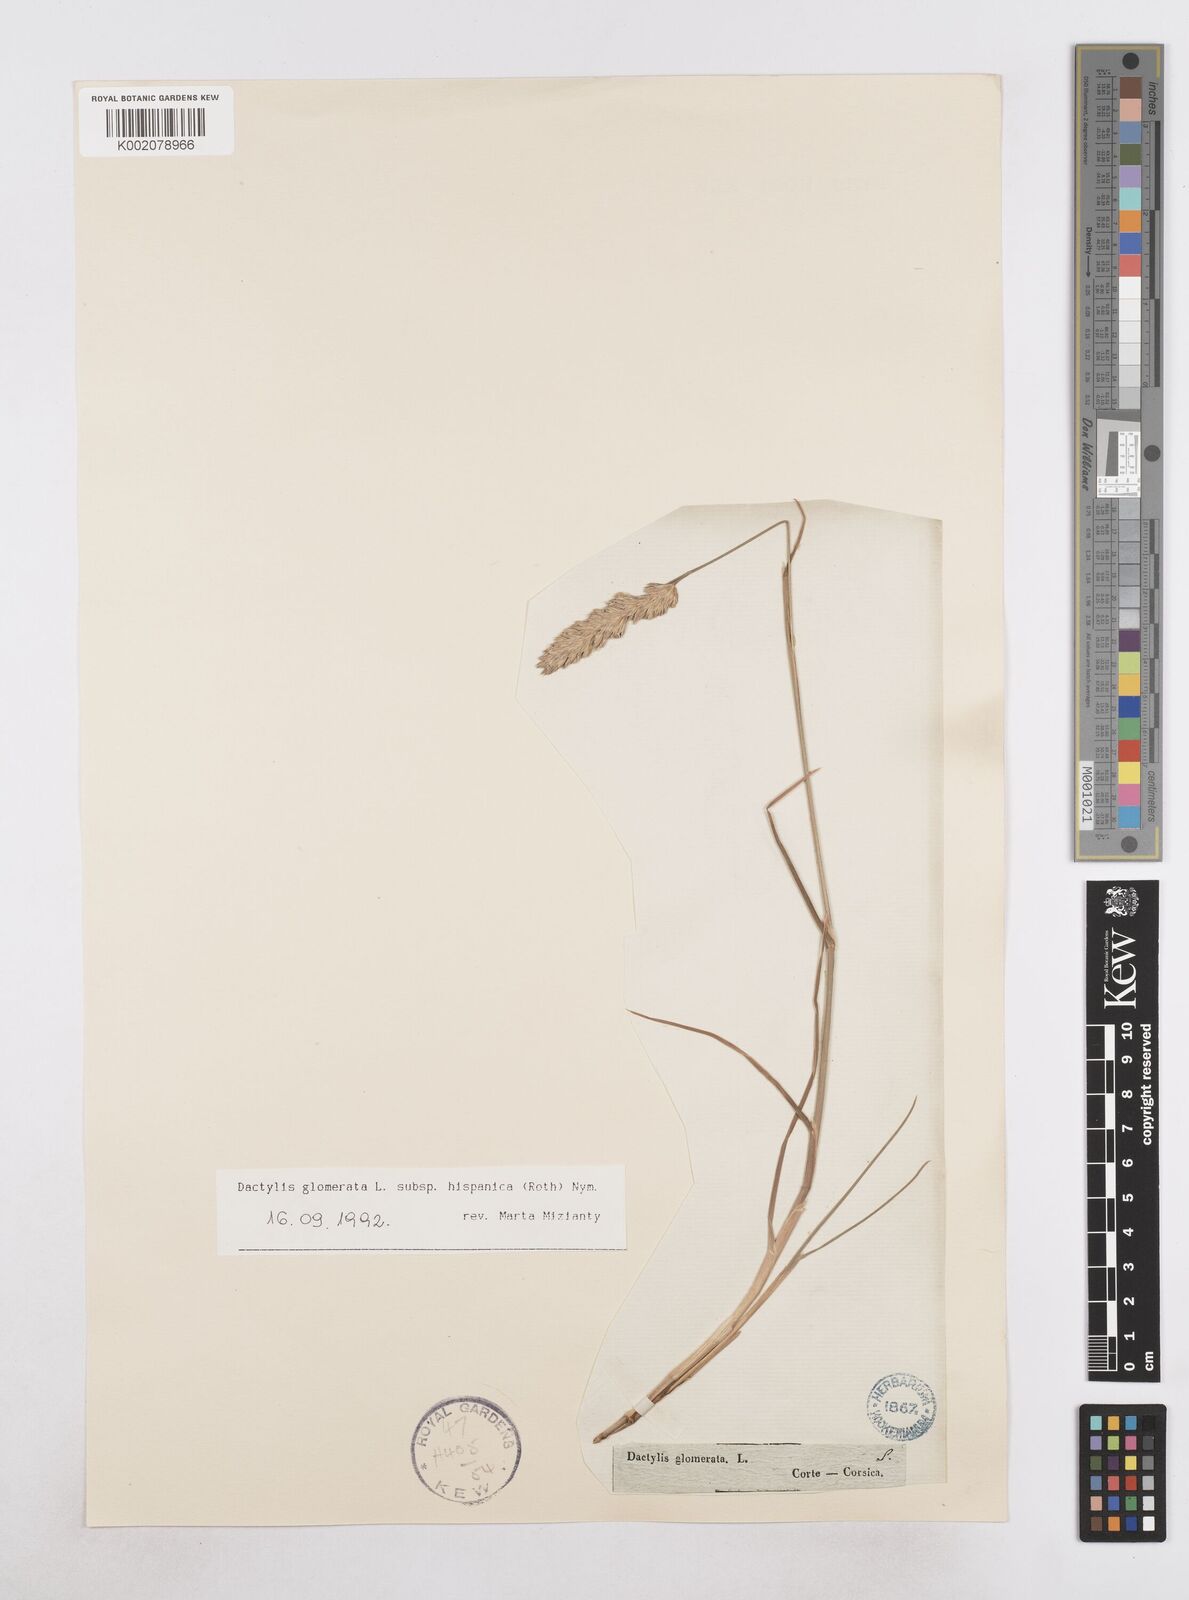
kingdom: Plantae
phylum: Tracheophyta
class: Liliopsida
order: Poales
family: Poaceae
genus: Dactylis
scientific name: Dactylis glomerata
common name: Orchardgrass
